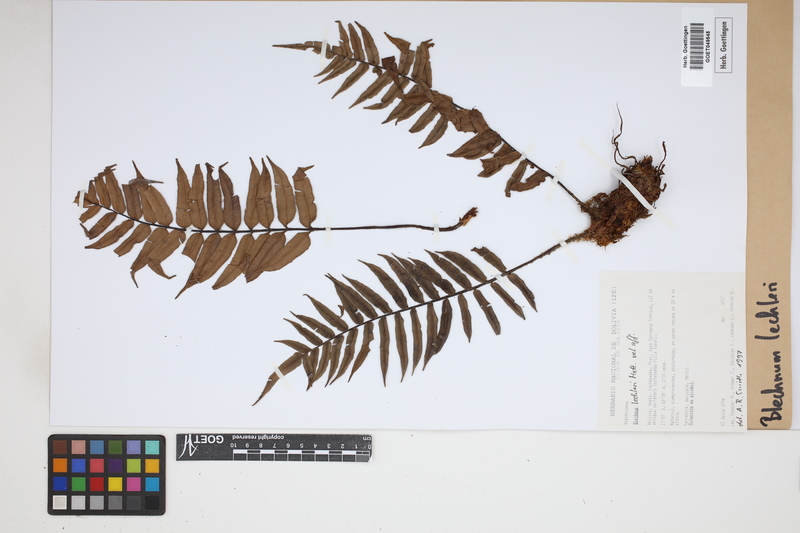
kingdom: Plantae
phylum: Tracheophyta
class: Polypodiopsida
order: Polypodiales
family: Blechnaceae
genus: Parablechnum
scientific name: Parablechnum lechleri
